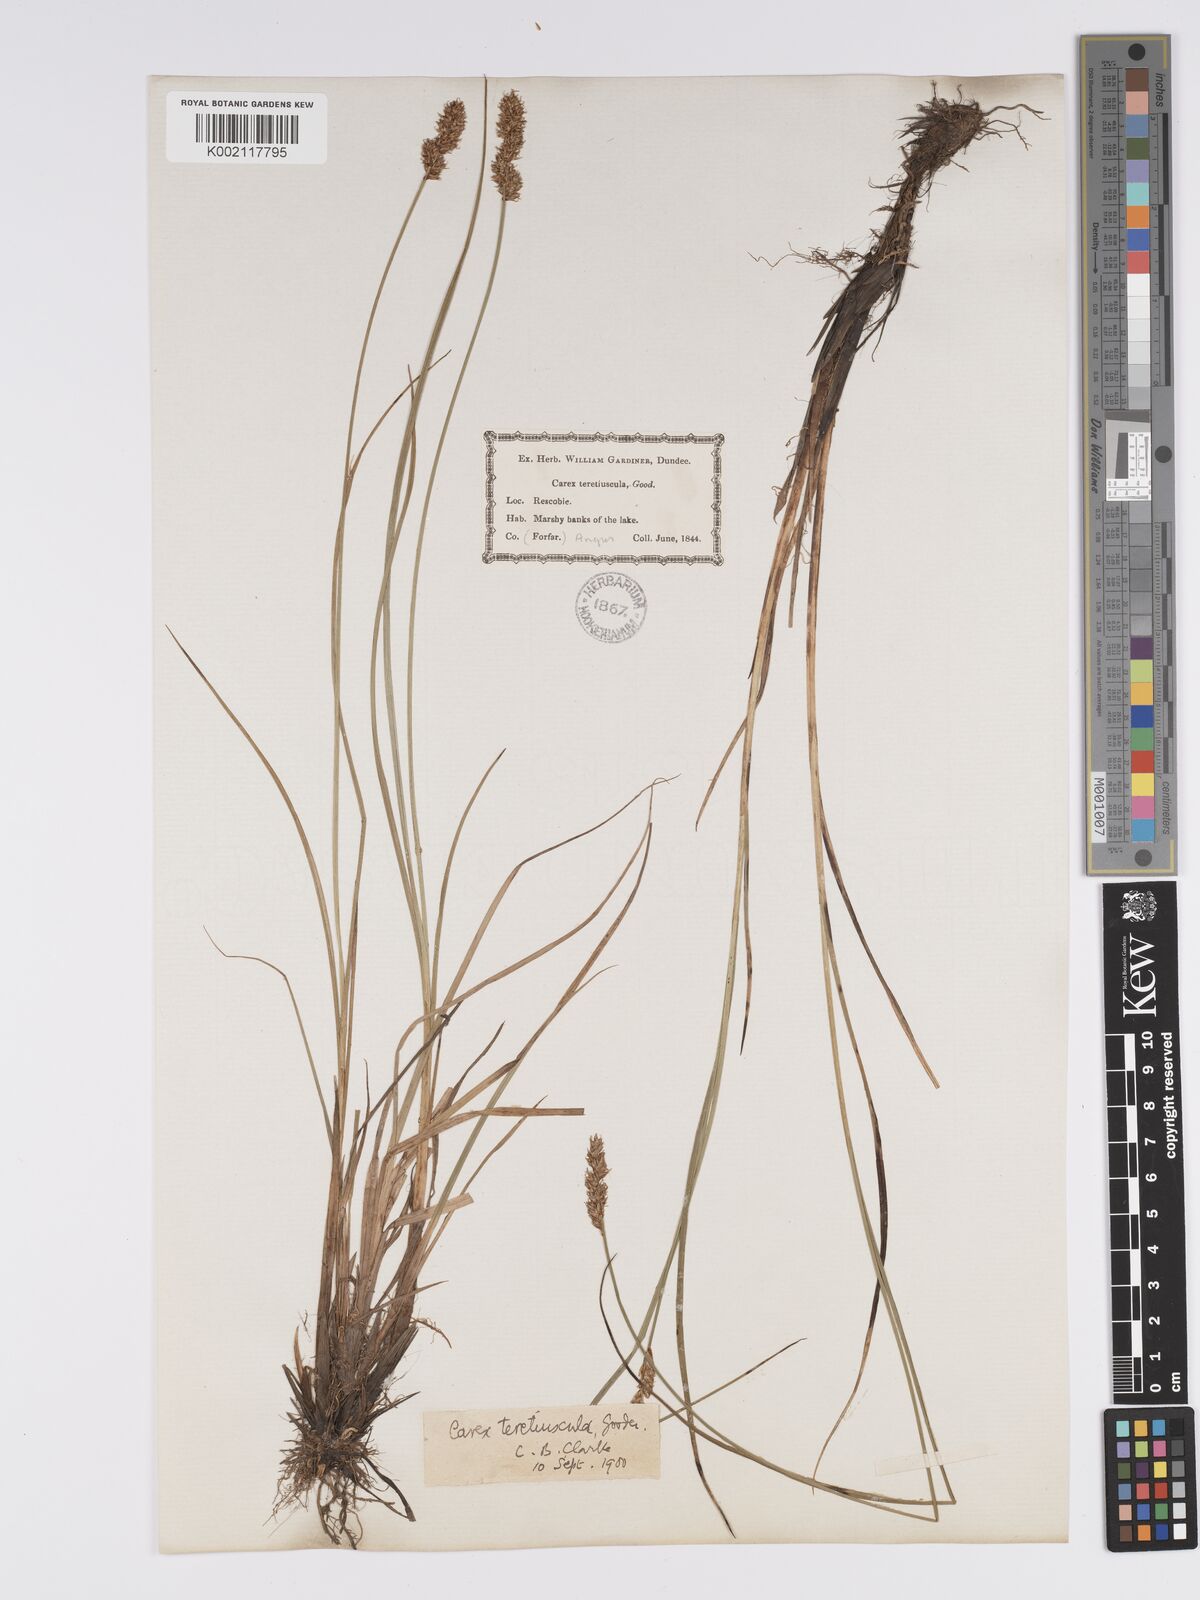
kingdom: Plantae
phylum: Tracheophyta
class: Liliopsida
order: Poales
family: Cyperaceae
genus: Carex
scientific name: Carex diandra
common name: Lesser tussock-sedge
